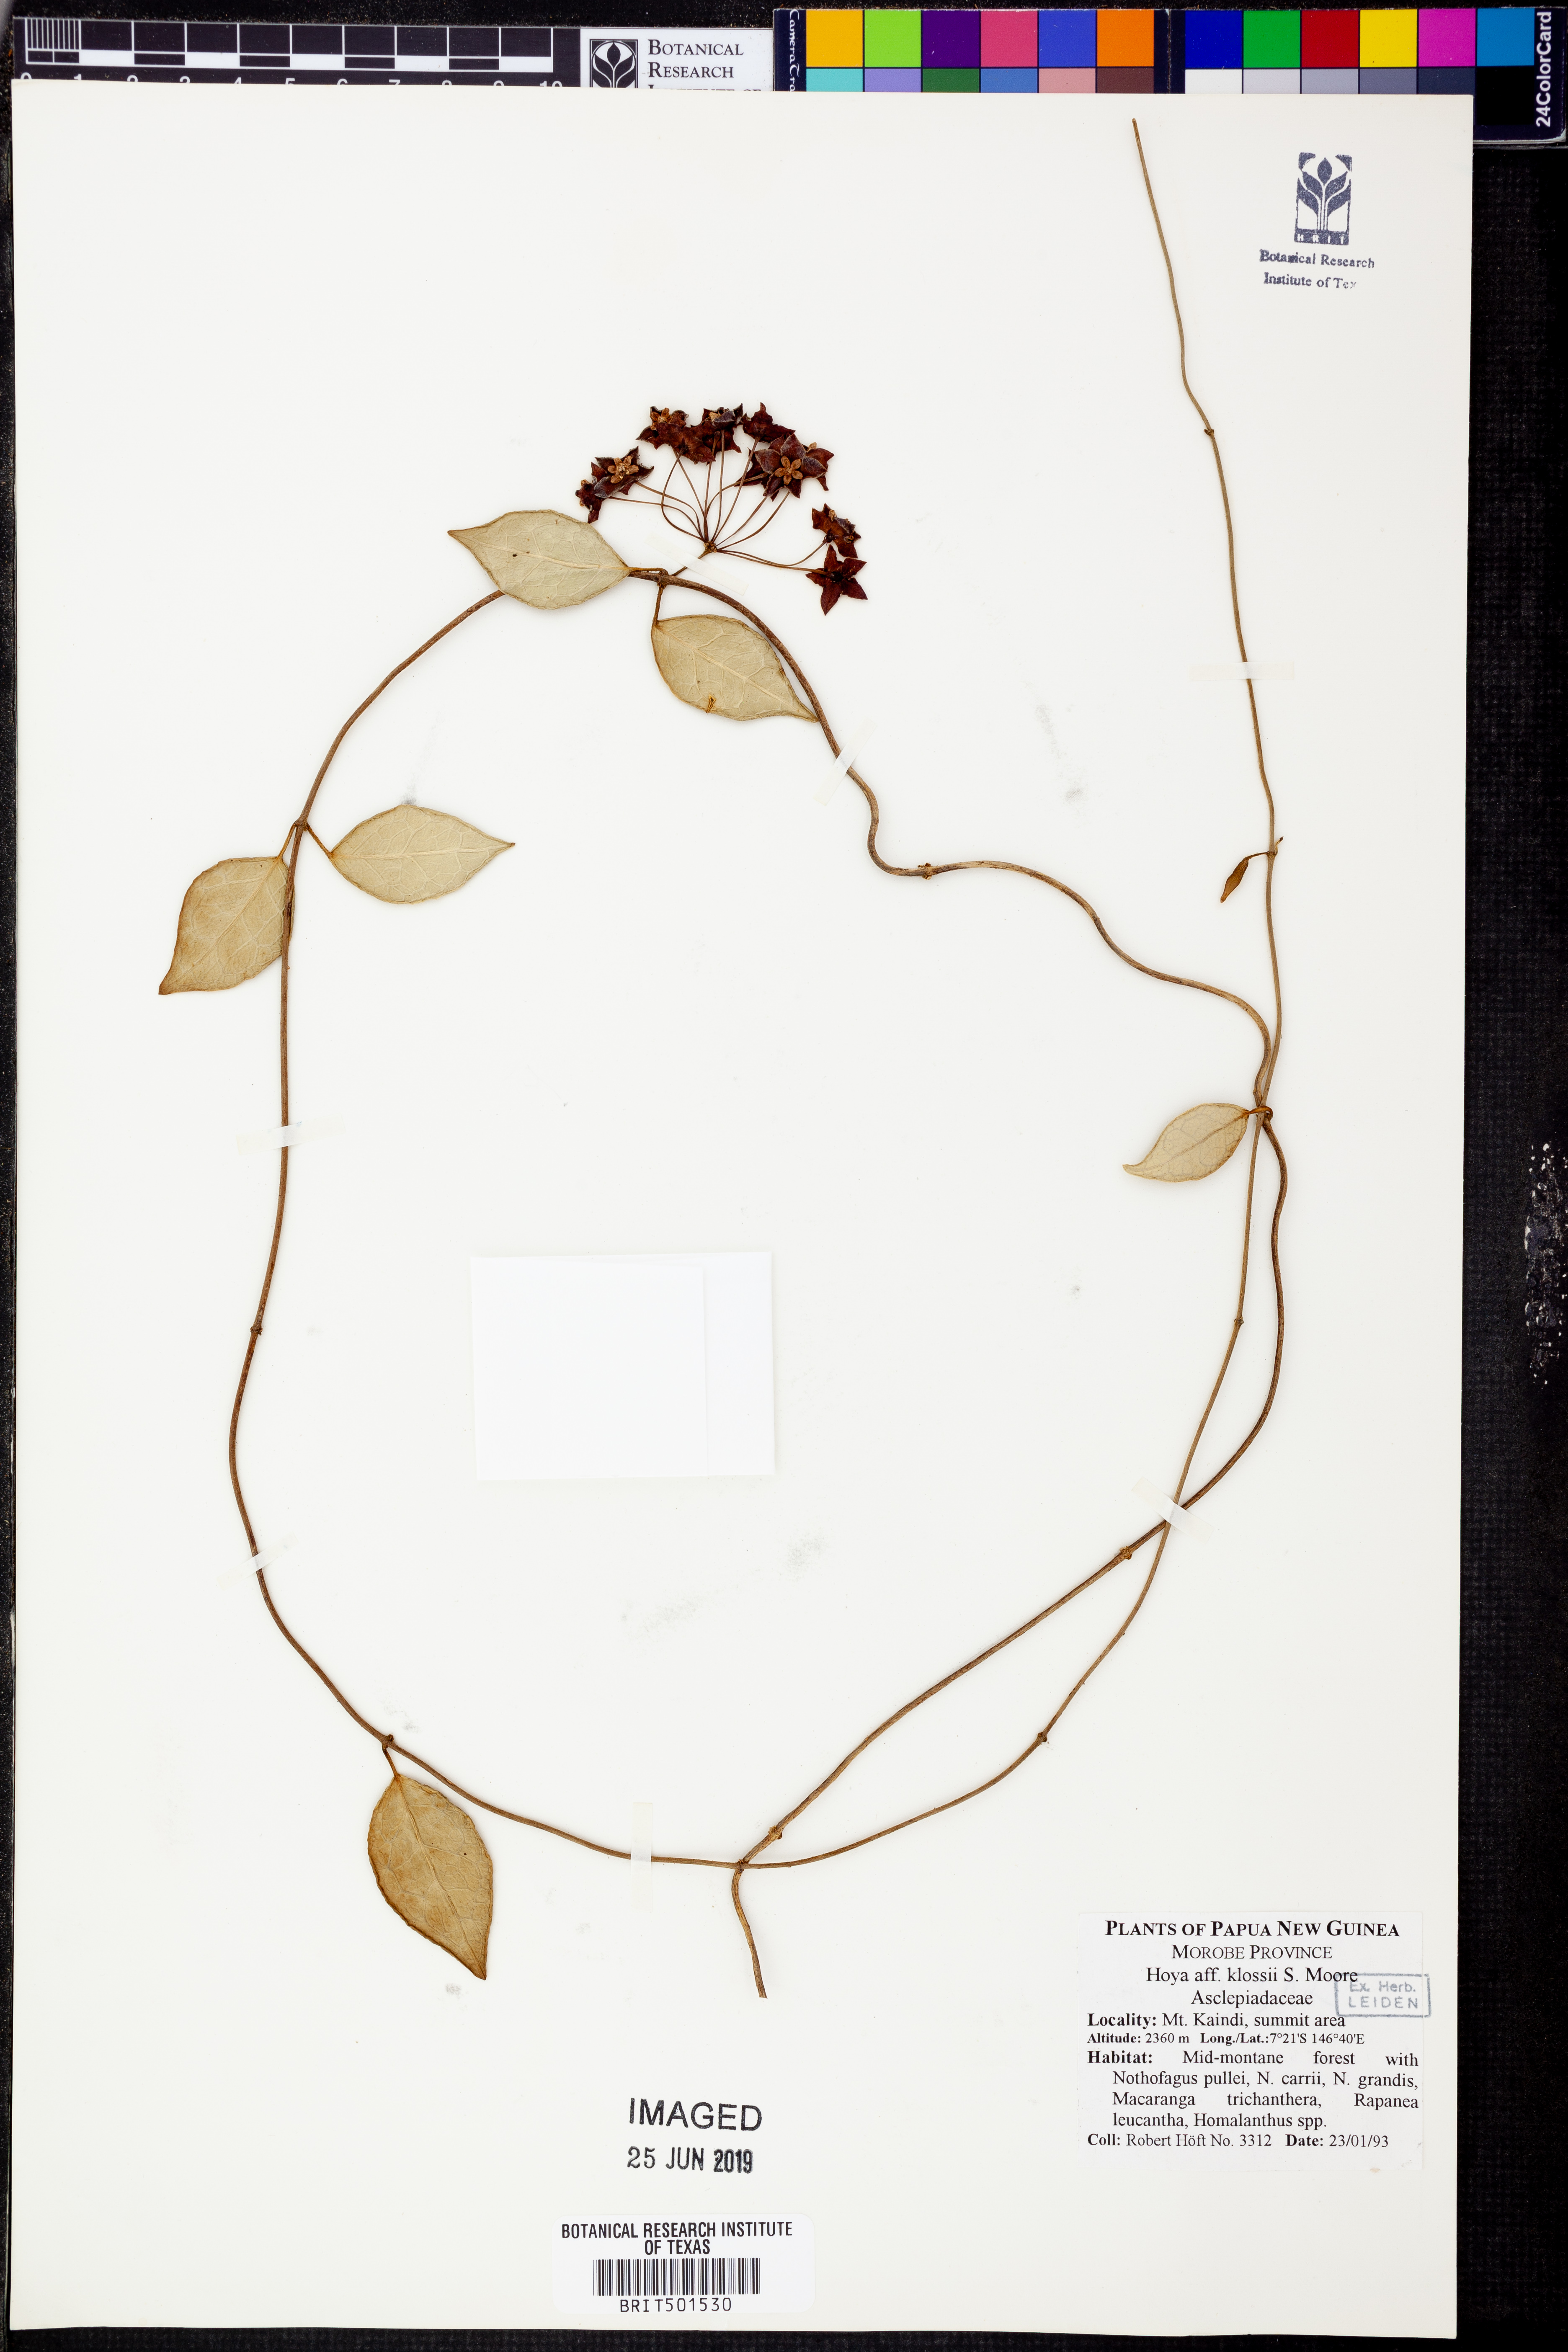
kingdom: Plantae
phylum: Tracheophyta
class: Magnoliopsida
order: Gentianales
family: Apocynaceae
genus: Hoya
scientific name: Hoya klossii
